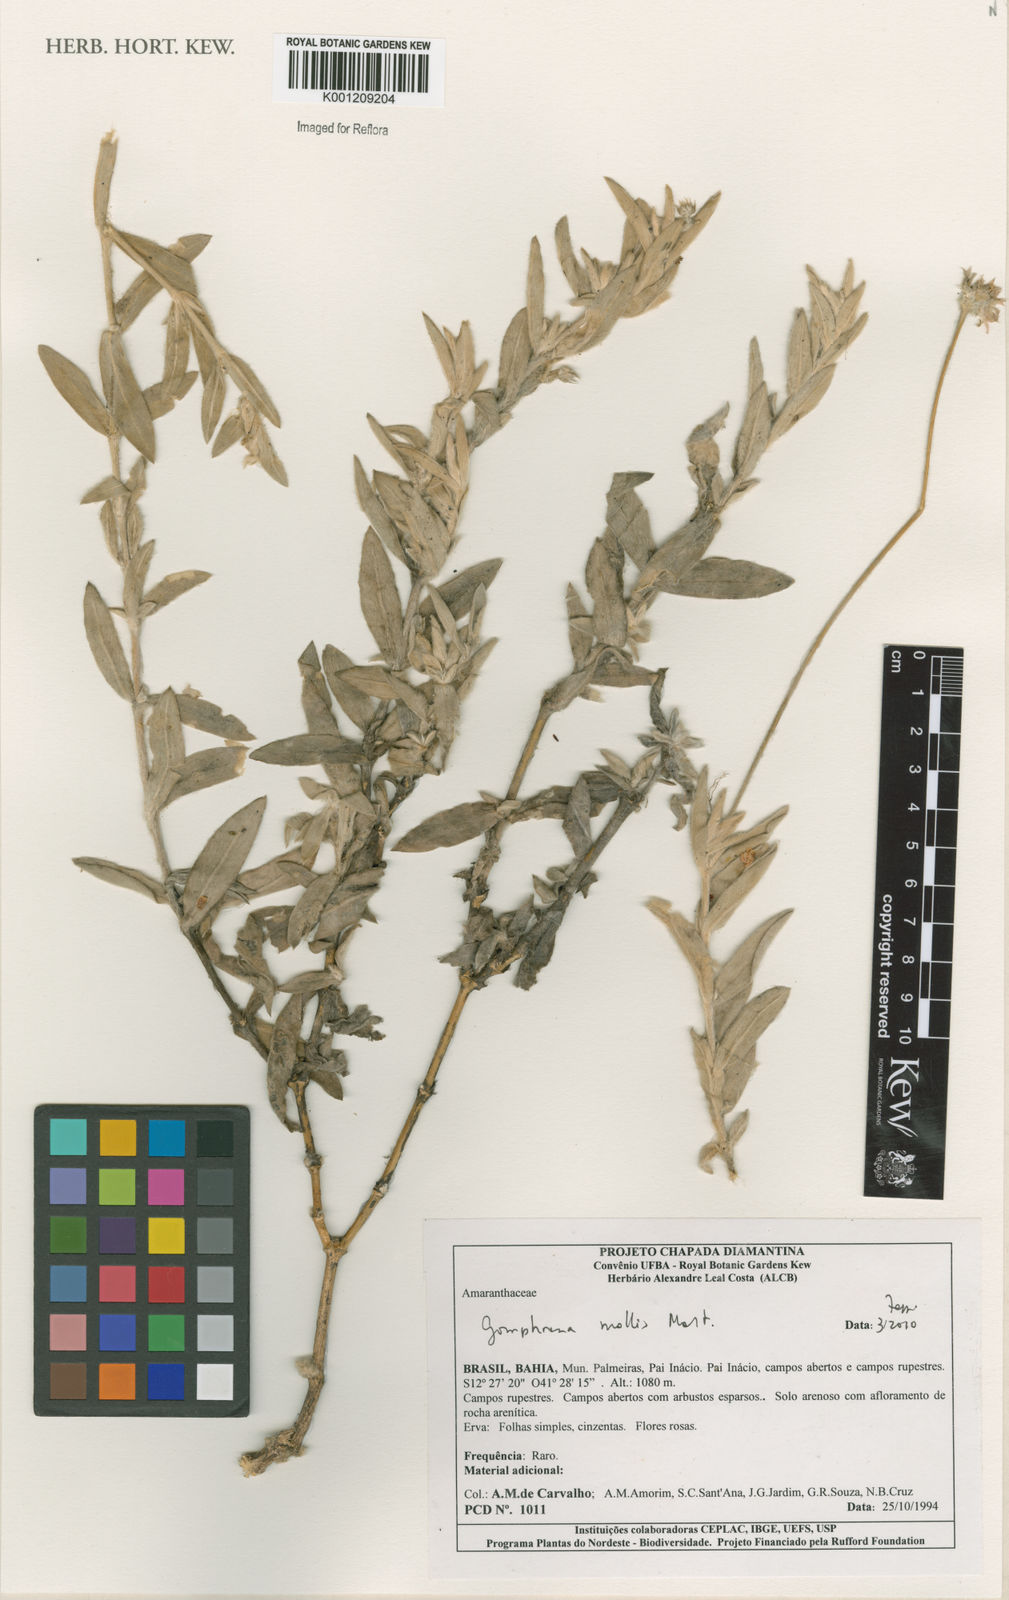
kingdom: Plantae
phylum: Tracheophyta
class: Magnoliopsida
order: Caryophyllales
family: Amaranthaceae
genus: Gomphrena
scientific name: Gomphrena mollis
